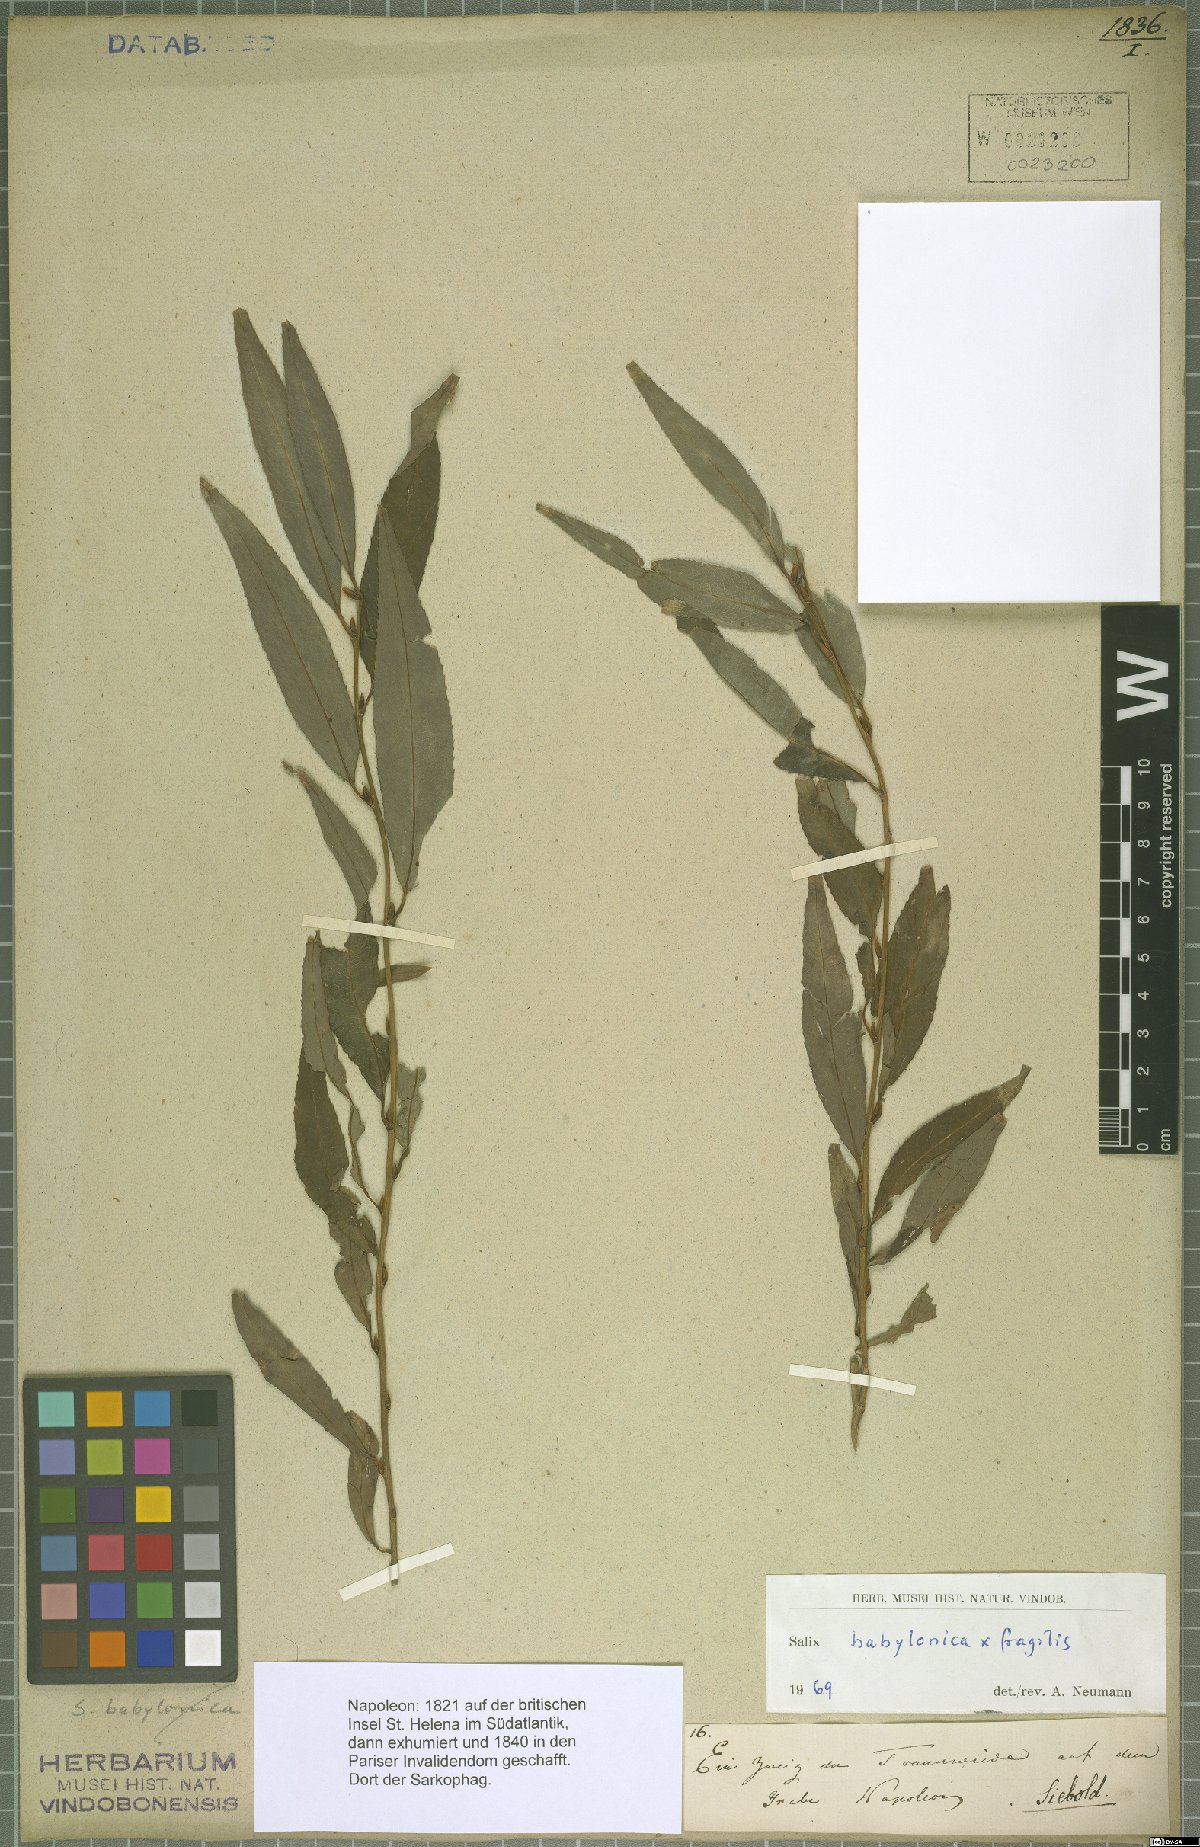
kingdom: Plantae
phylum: Tracheophyta
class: Magnoliopsida
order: Malpighiales
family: Salicaceae
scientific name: Salicaceae
